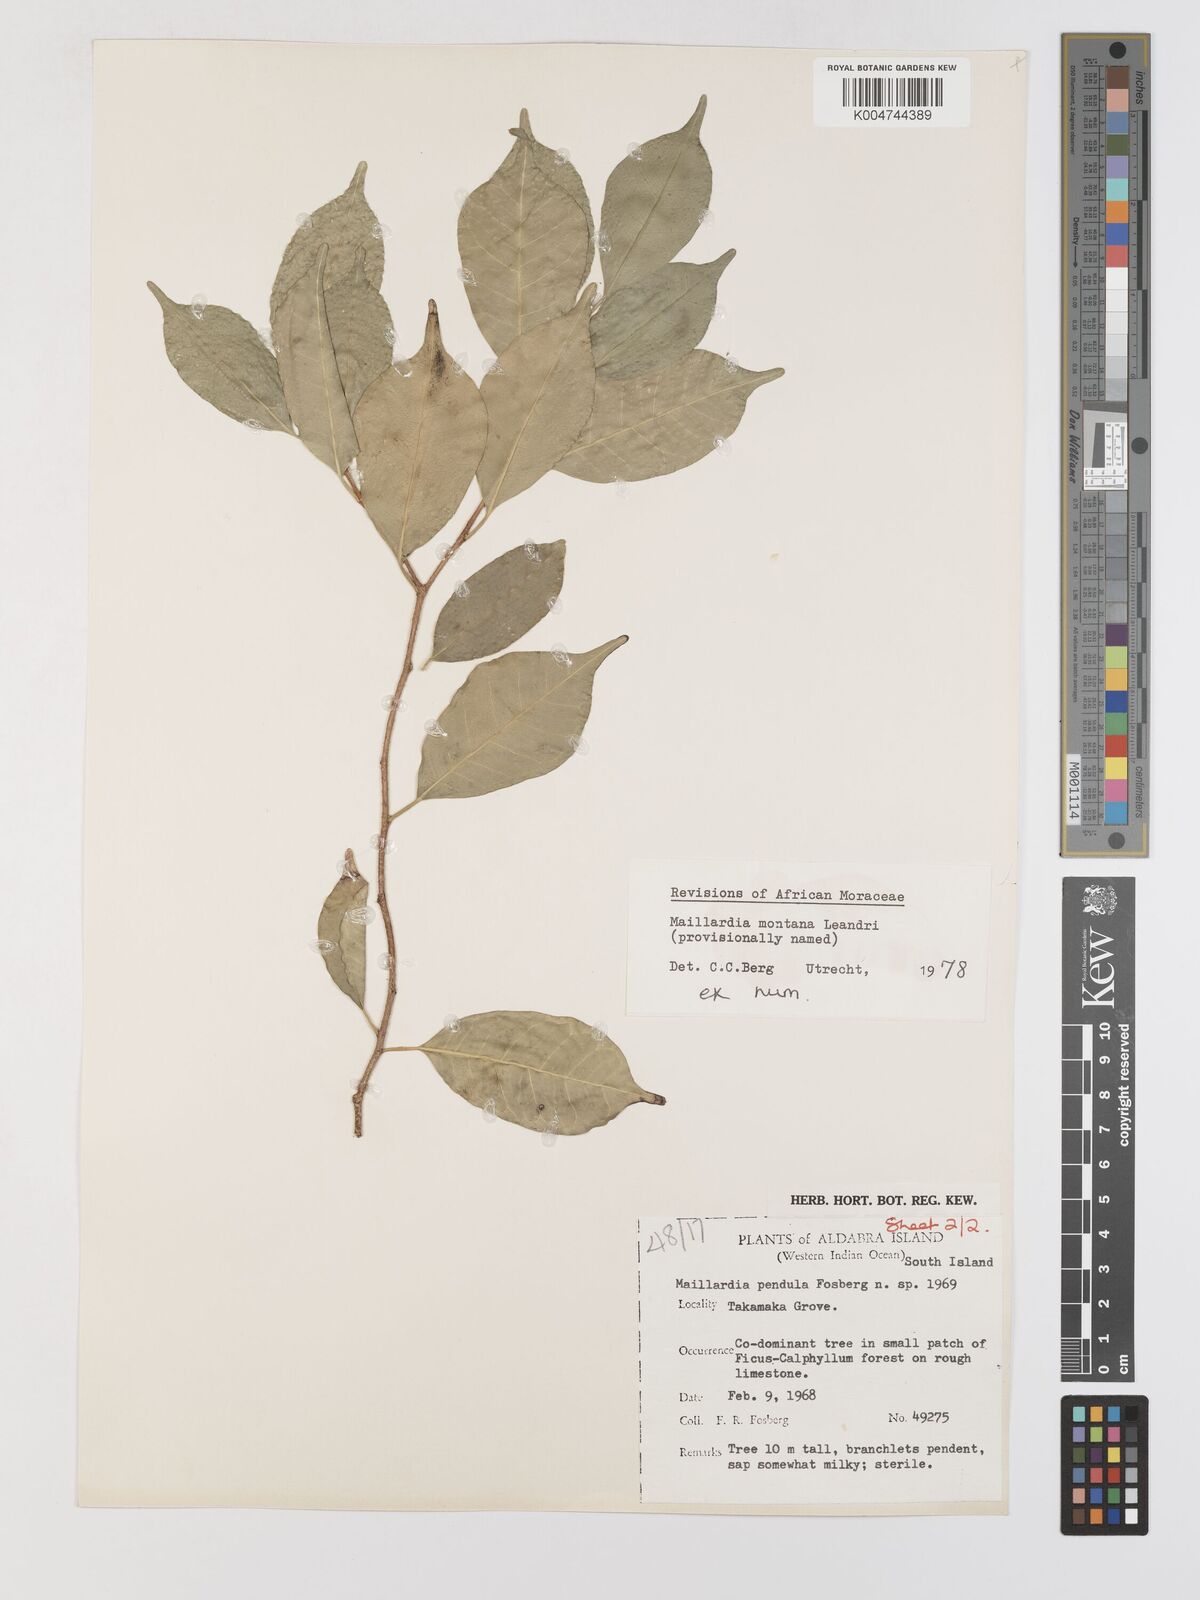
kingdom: Plantae
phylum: Tracheophyta
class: Magnoliopsida
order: Rosales
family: Moraceae
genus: Maillardia
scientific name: Maillardia montana
